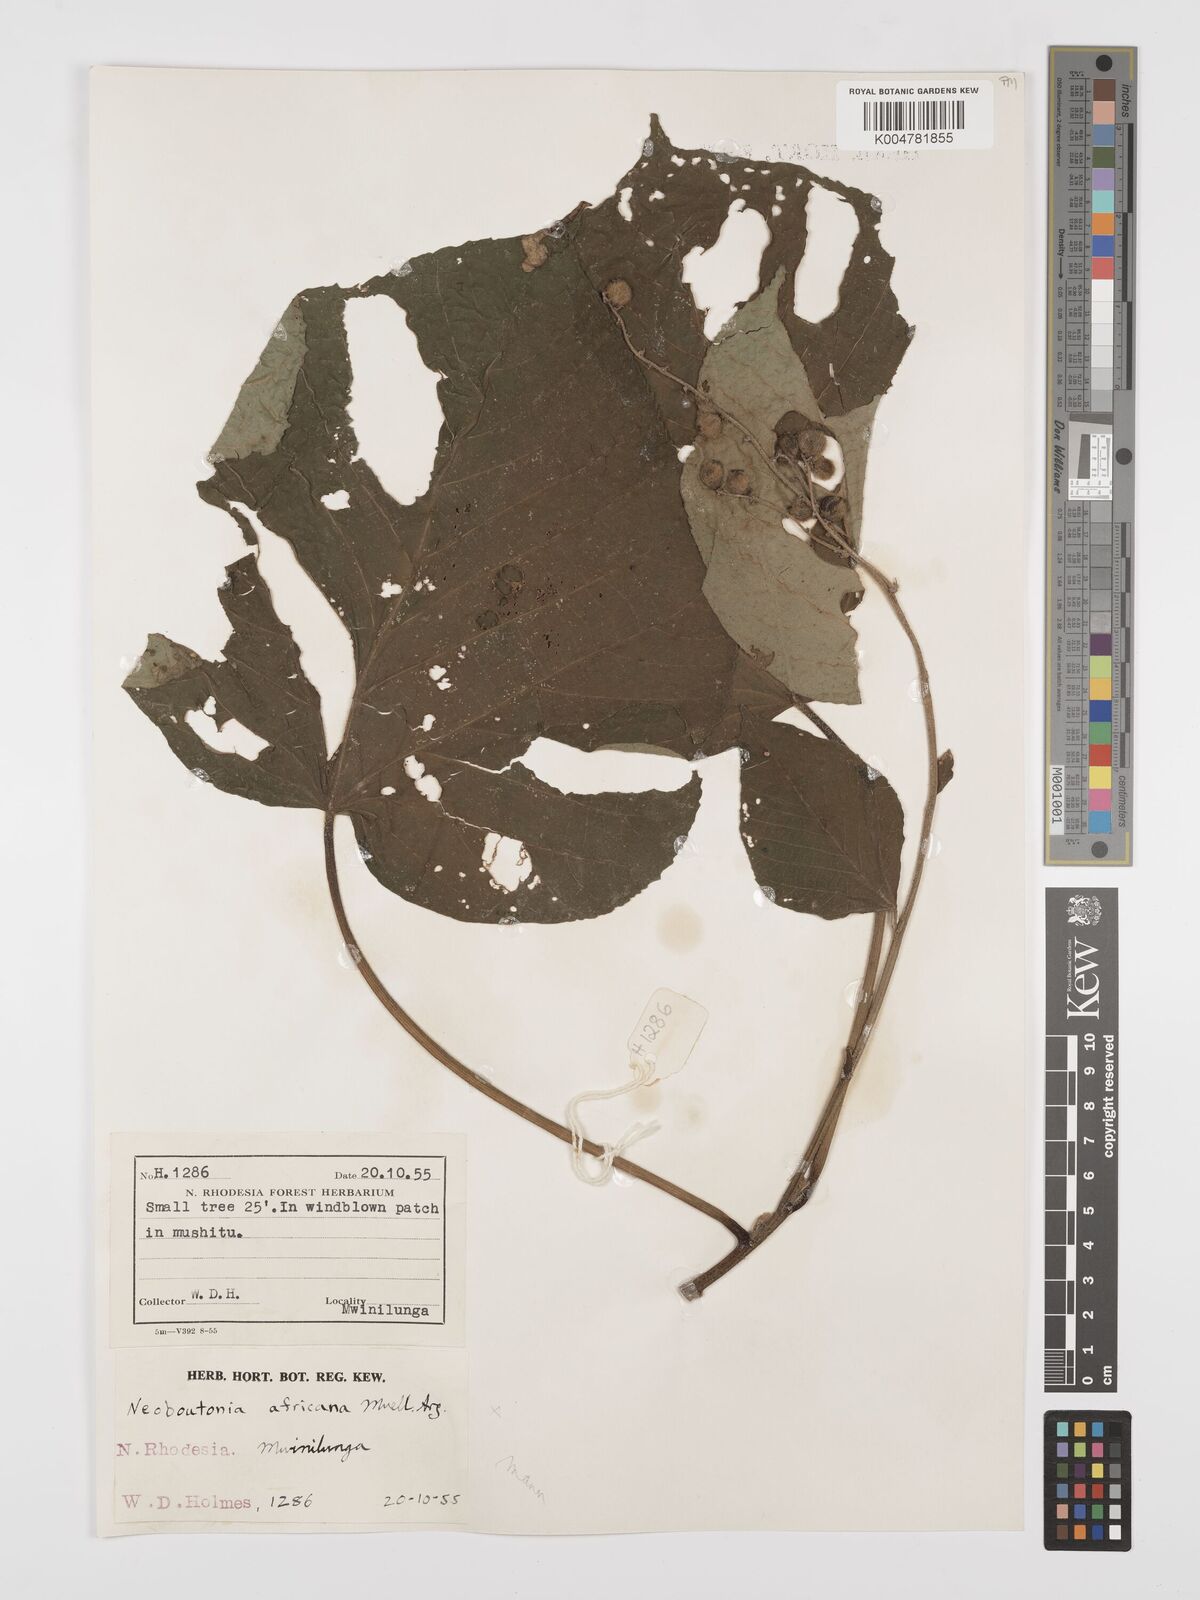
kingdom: Plantae
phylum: Tracheophyta
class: Magnoliopsida
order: Malpighiales
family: Euphorbiaceae
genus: Neoboutonia
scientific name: Neoboutonia mannii
